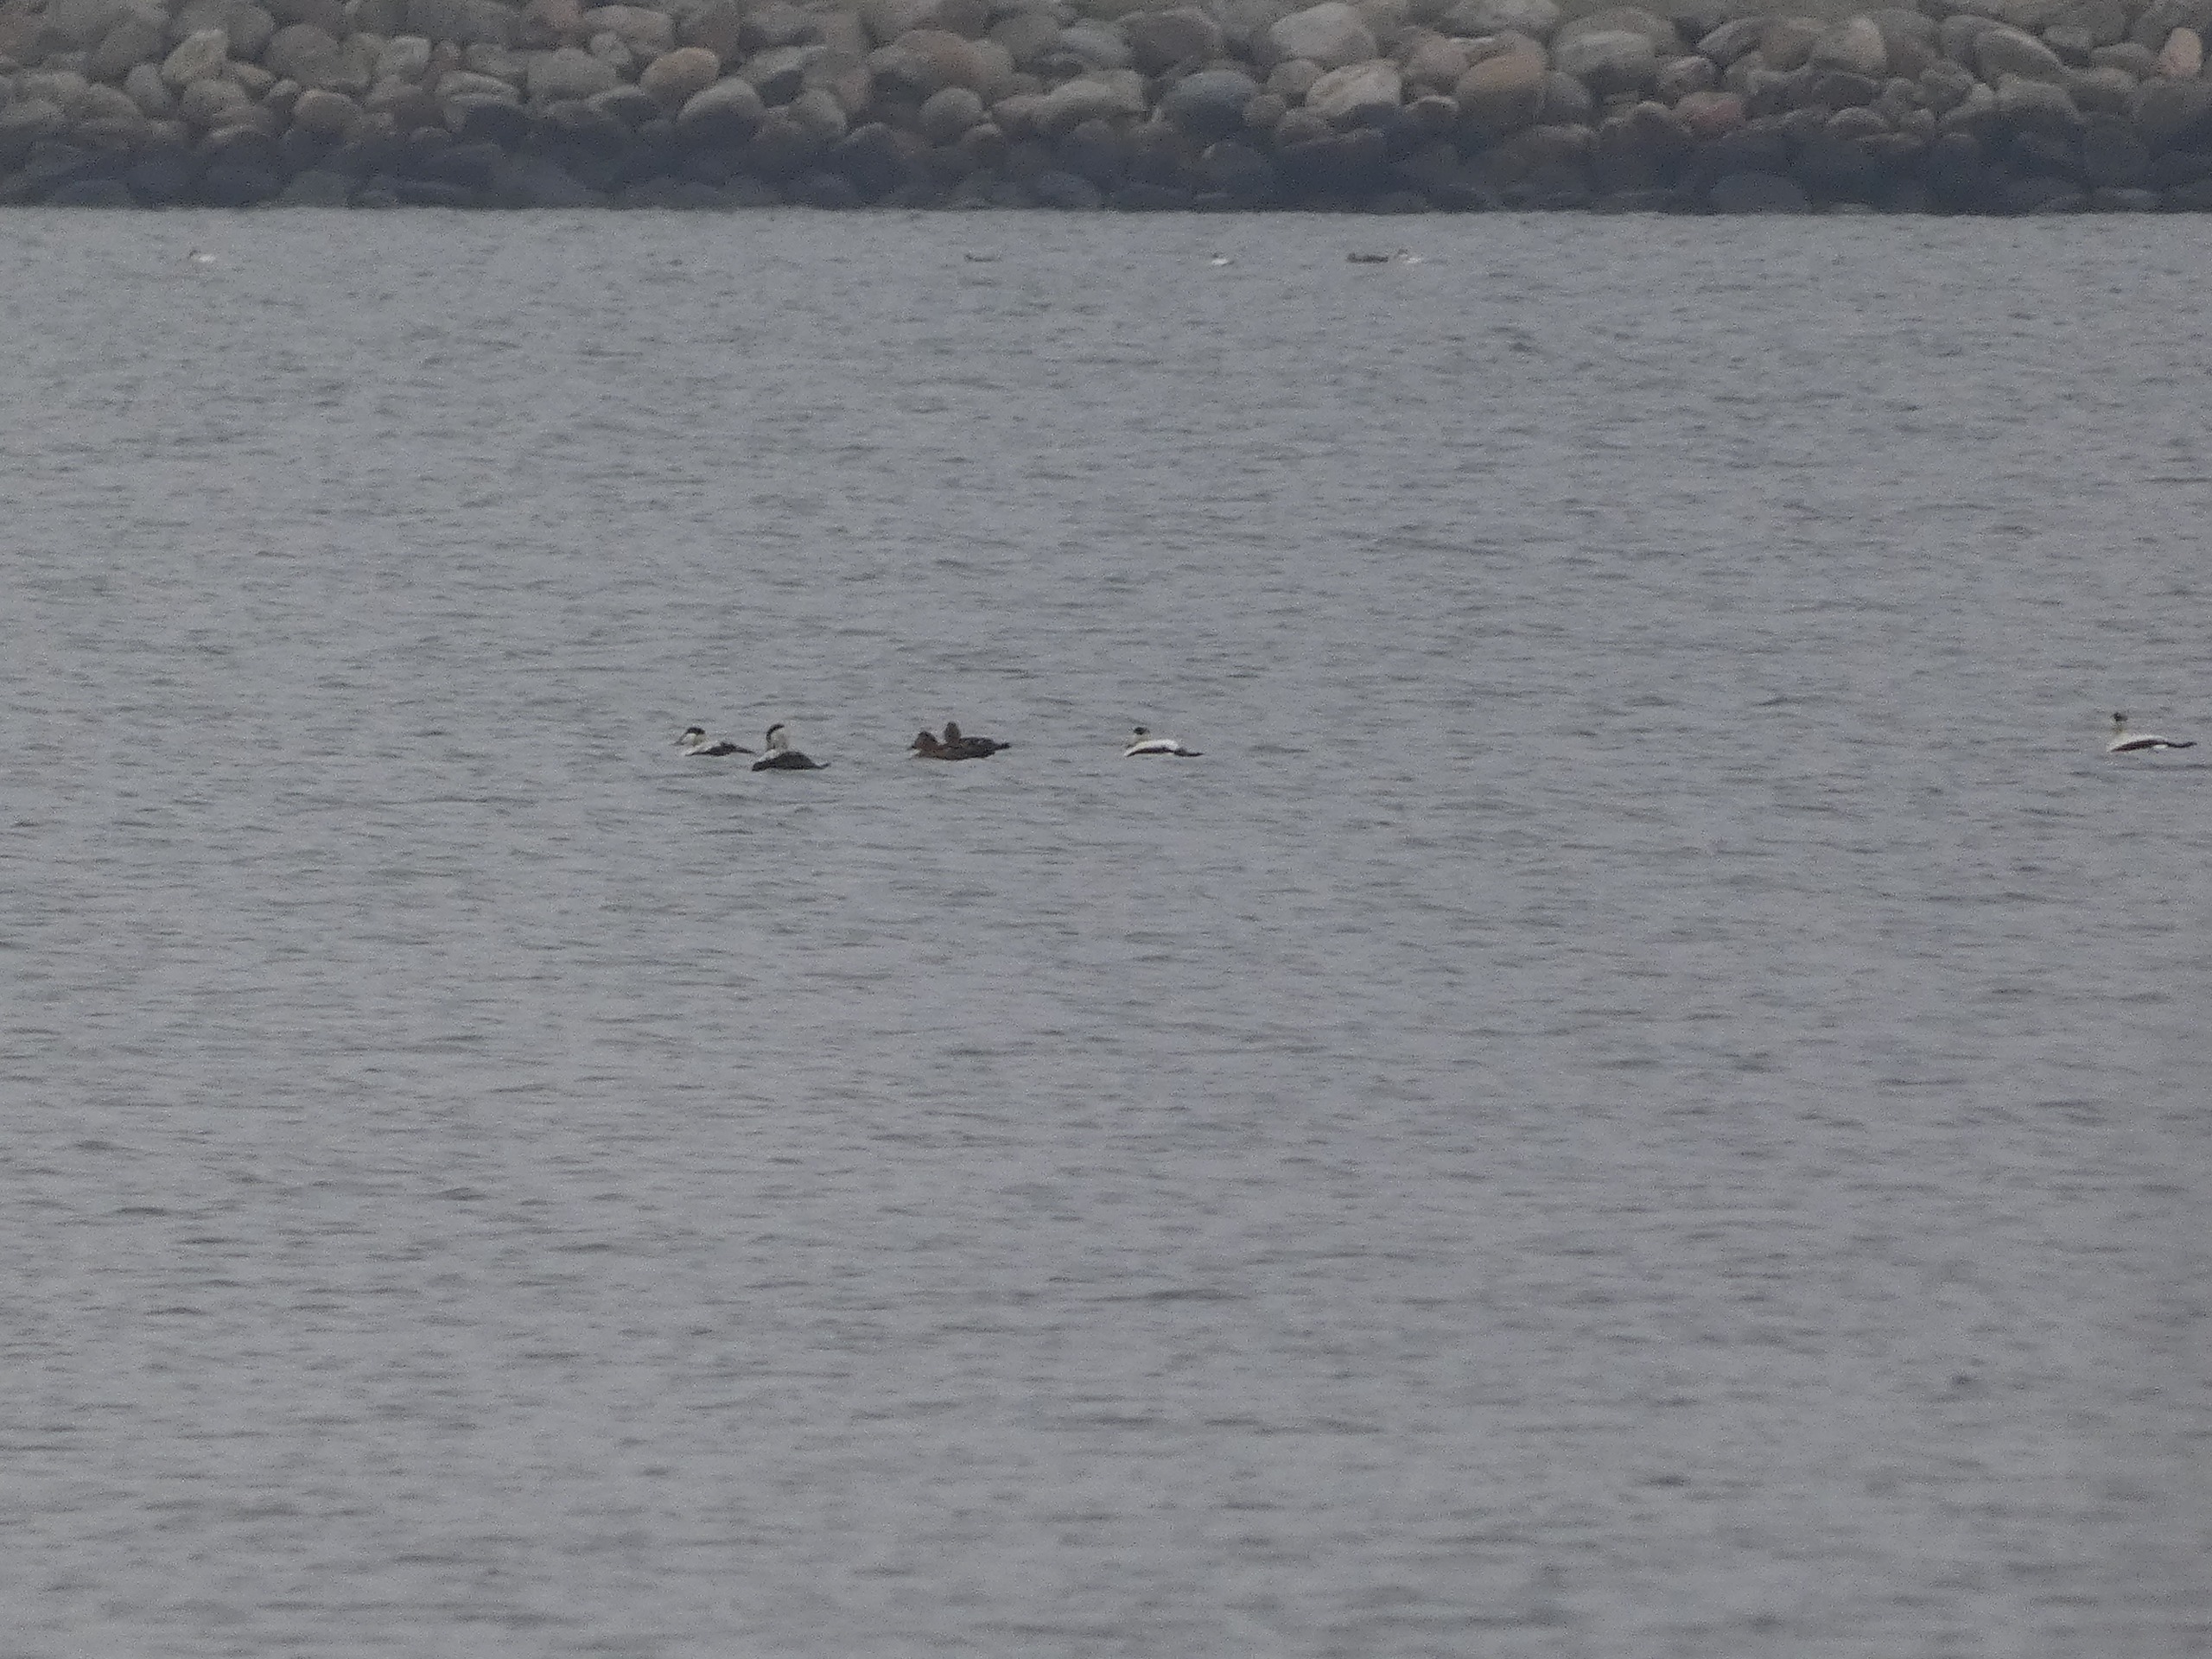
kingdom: Animalia
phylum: Chordata
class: Aves
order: Anseriformes
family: Anatidae
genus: Somateria
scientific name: Somateria mollissima
